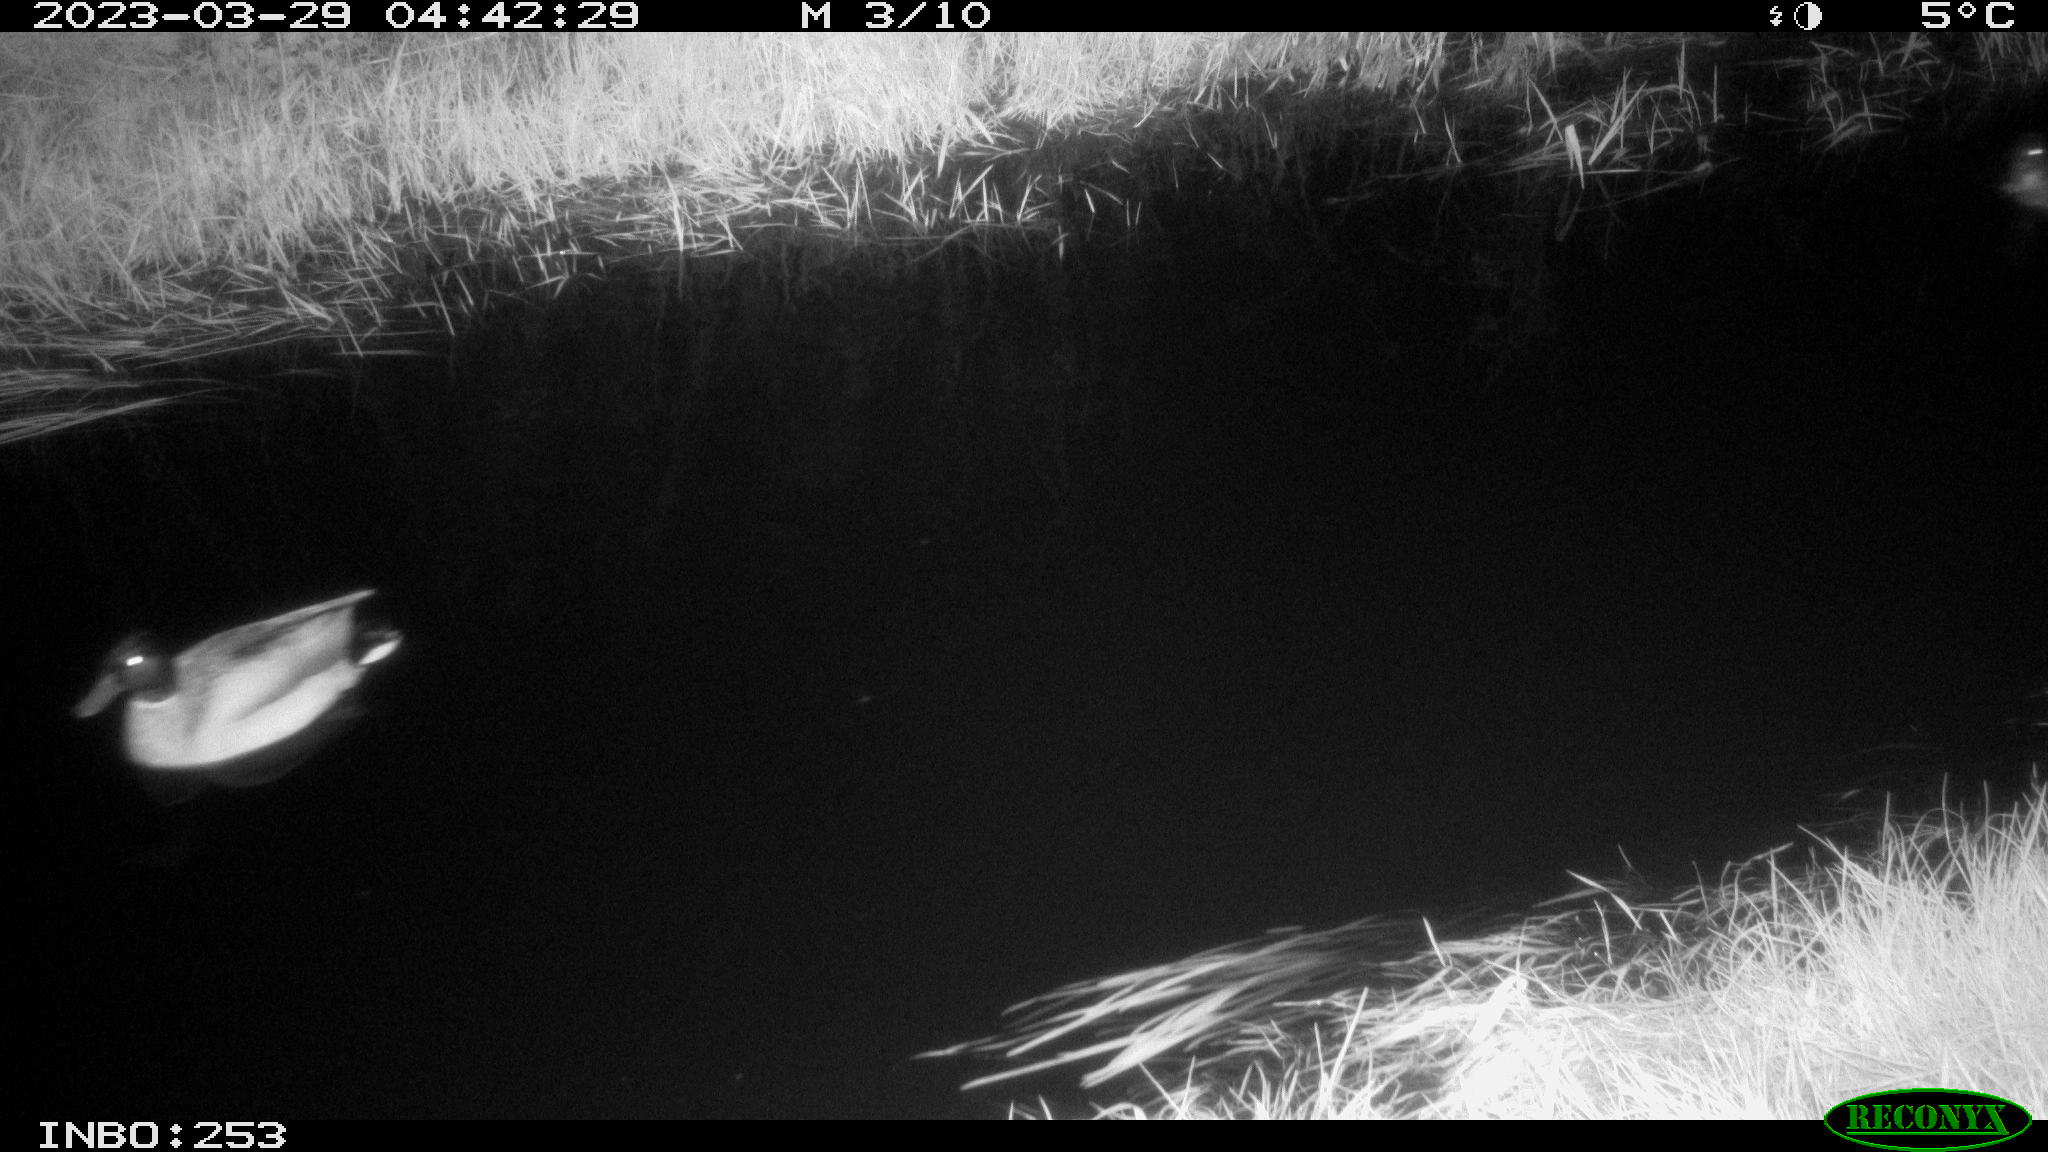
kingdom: Animalia
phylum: Chordata
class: Aves
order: Anseriformes
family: Anatidae
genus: Anas
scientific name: Anas
